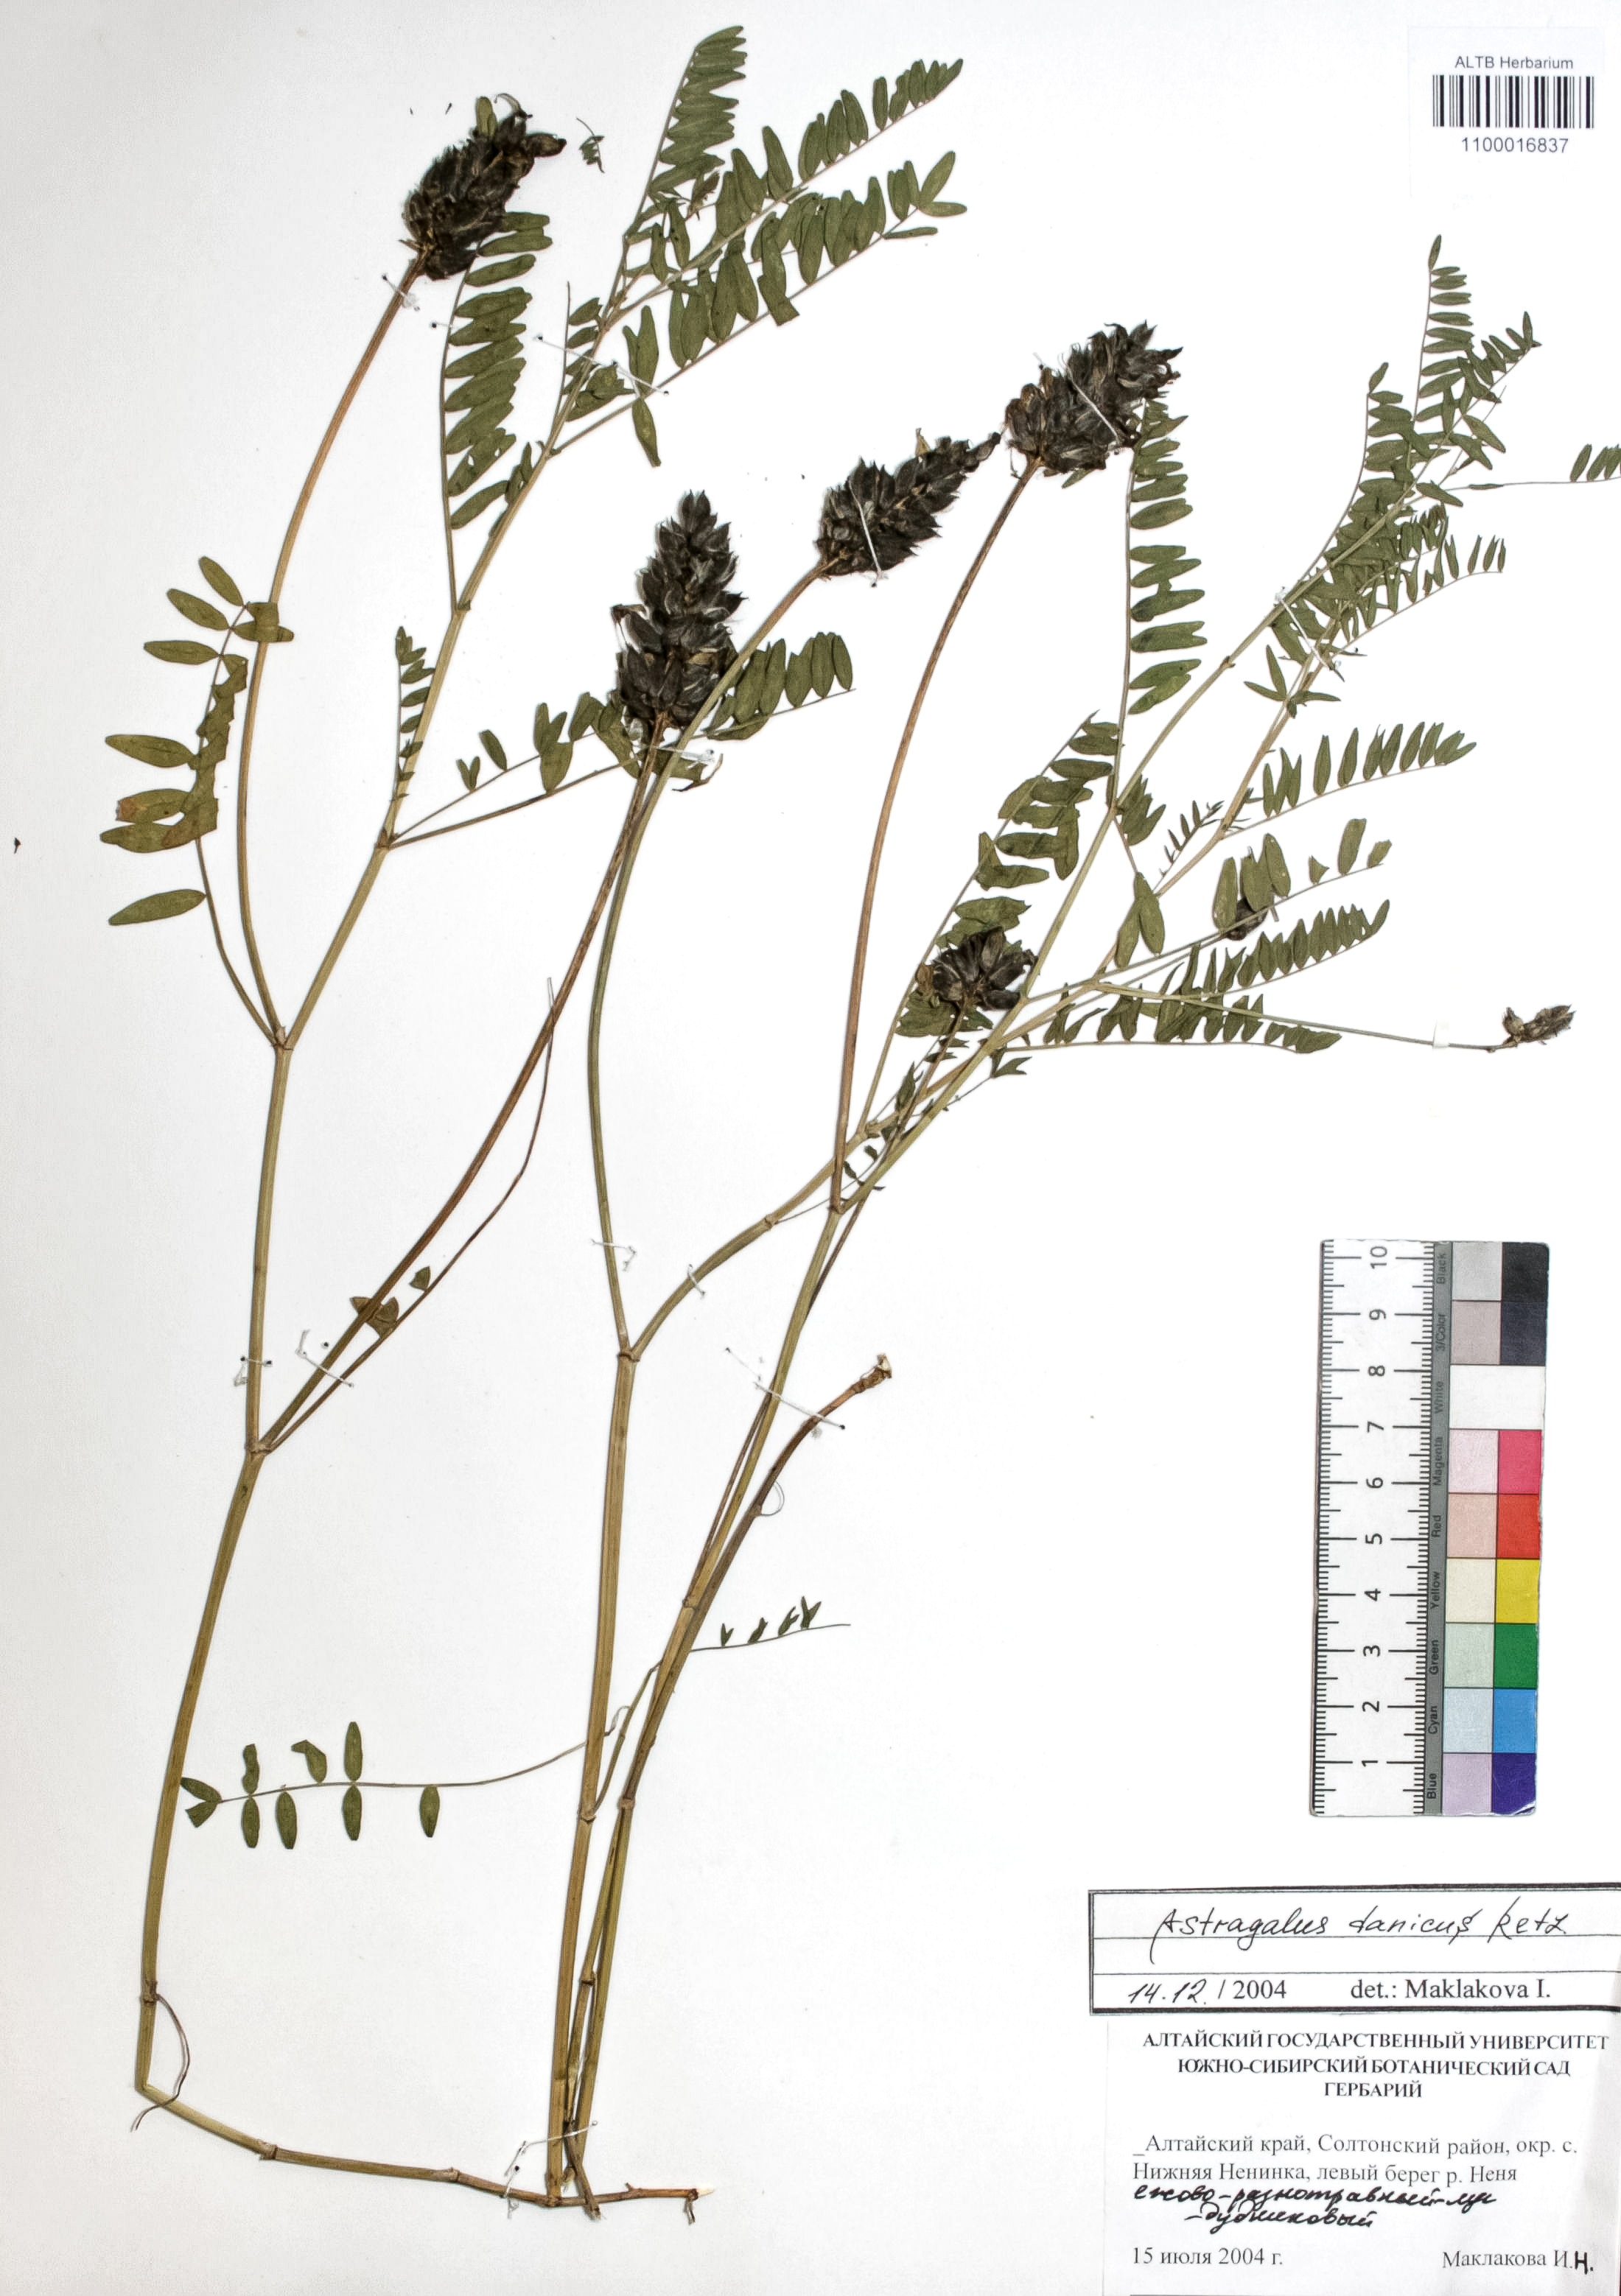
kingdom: Plantae
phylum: Tracheophyta
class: Magnoliopsida
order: Fabales
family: Fabaceae
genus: Astragalus
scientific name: Astragalus danicus
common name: Purple milk-vetch
